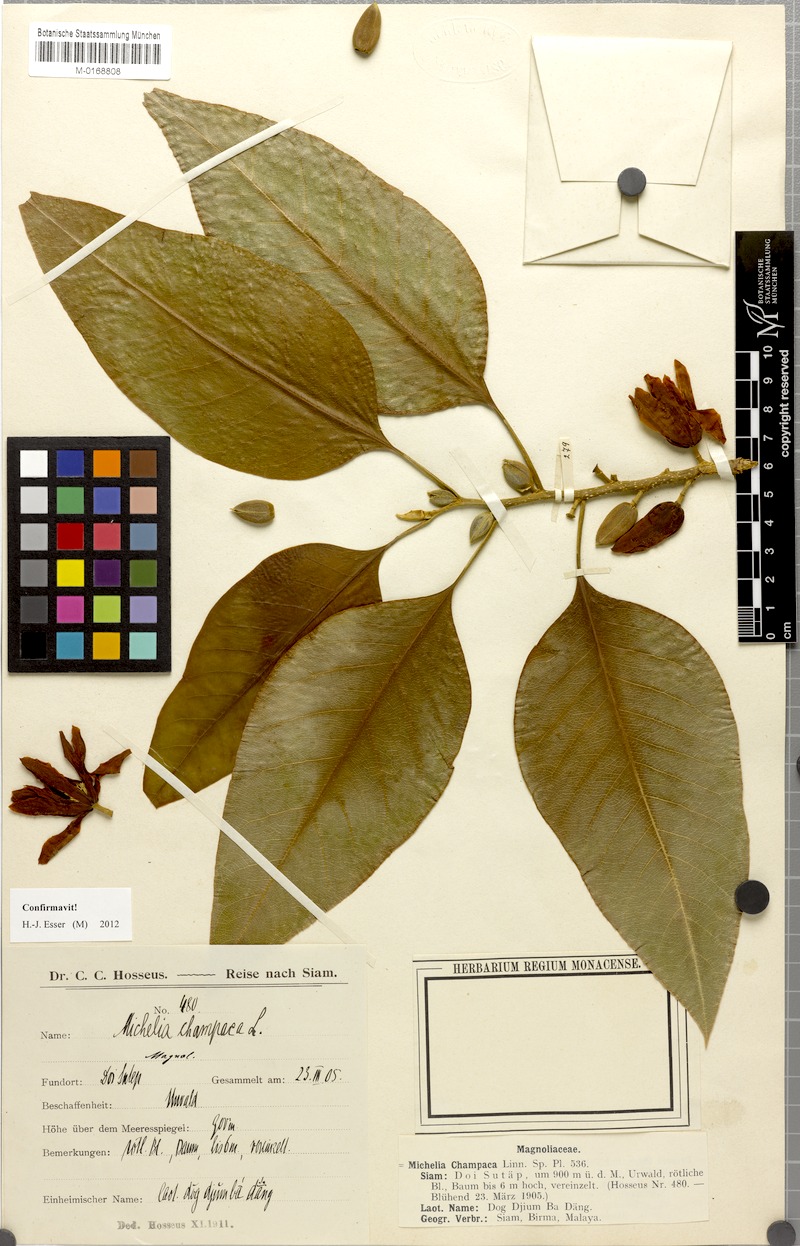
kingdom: Plantae
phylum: Tracheophyta
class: Magnoliopsida
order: Magnoliales
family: Magnoliaceae
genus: Magnolia
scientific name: Magnolia champaca
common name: Champak
